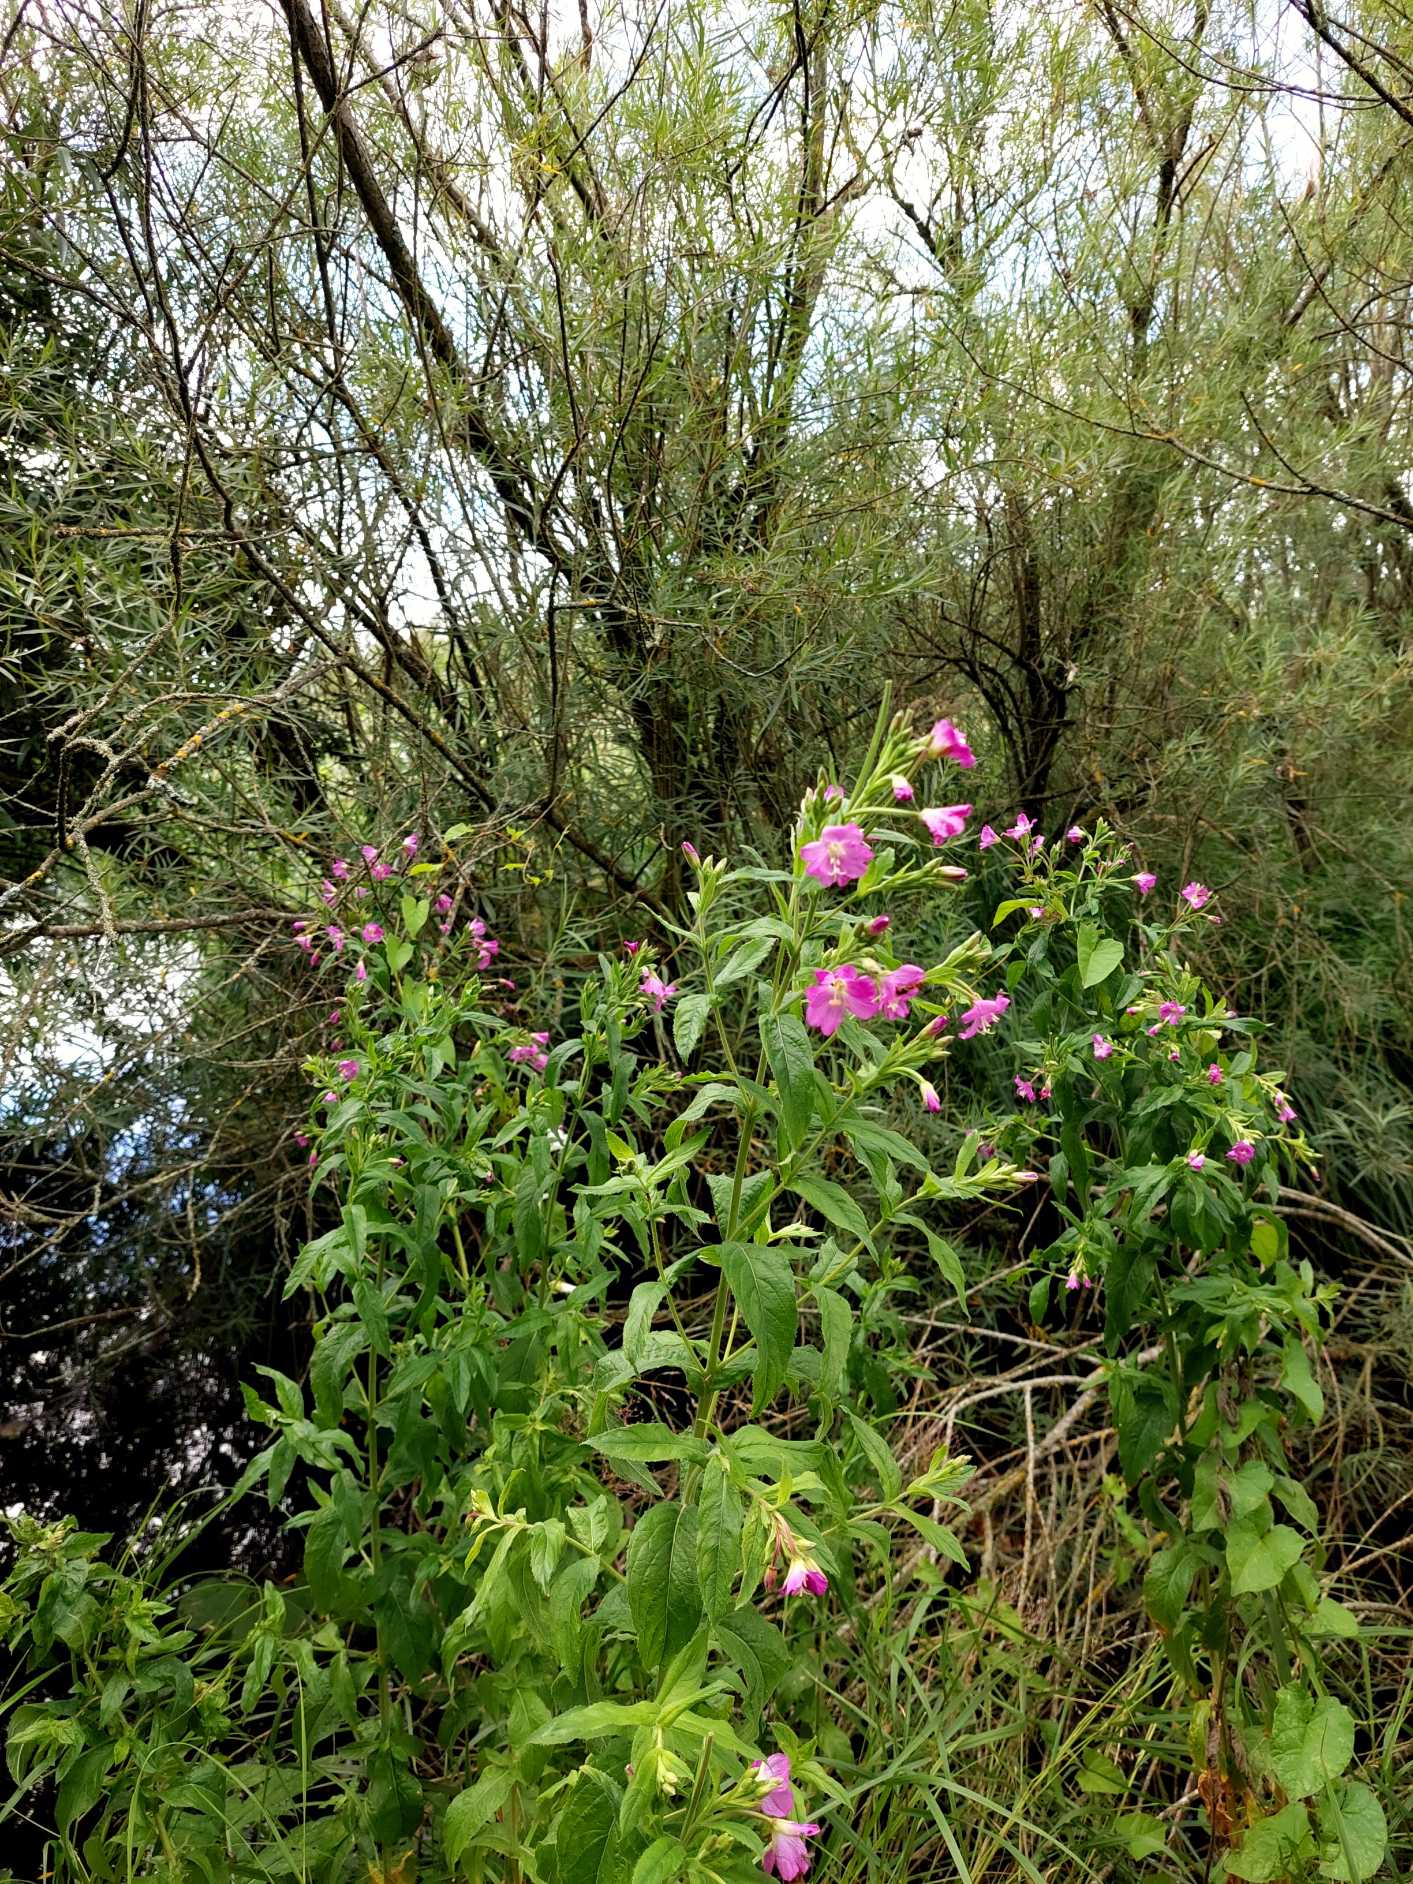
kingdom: Plantae
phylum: Tracheophyta
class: Magnoliopsida
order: Myrtales
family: Onagraceae
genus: Epilobium
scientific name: Epilobium hirsutum
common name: Lådden dueurt
